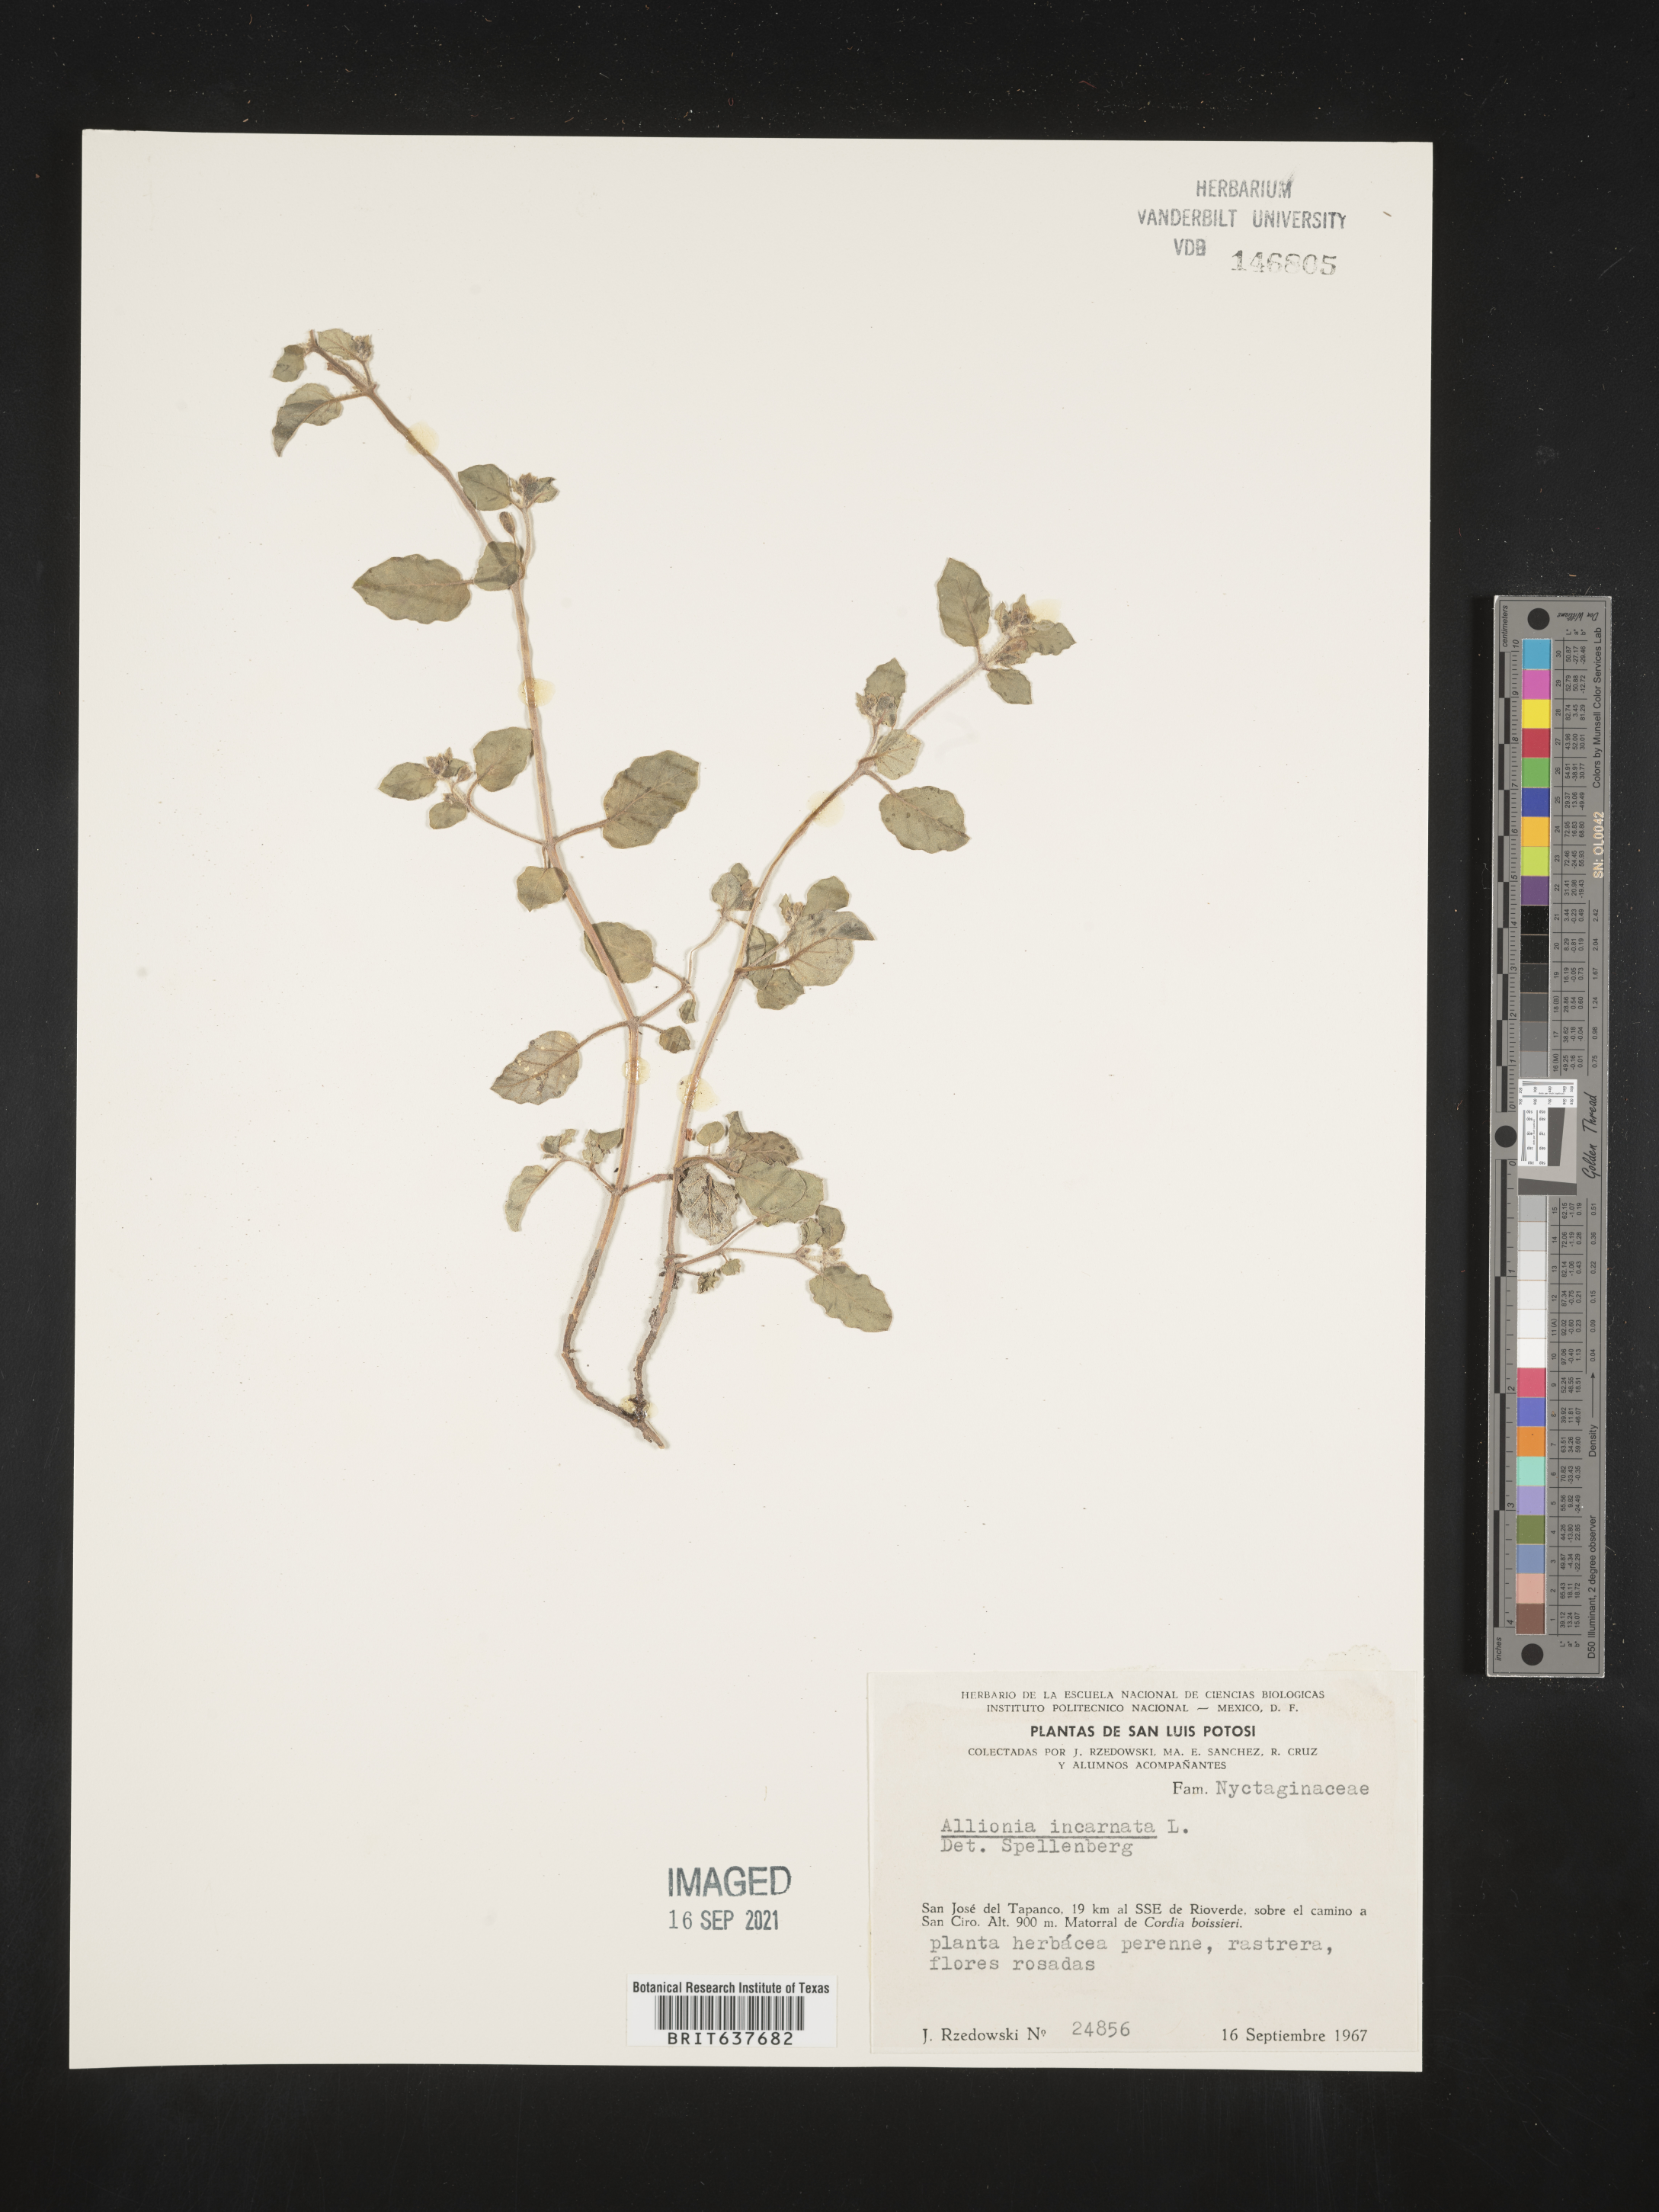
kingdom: Plantae
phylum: Tracheophyta
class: Magnoliopsida
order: Caryophyllales
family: Nyctaginaceae
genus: Allionia
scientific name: Allionia
